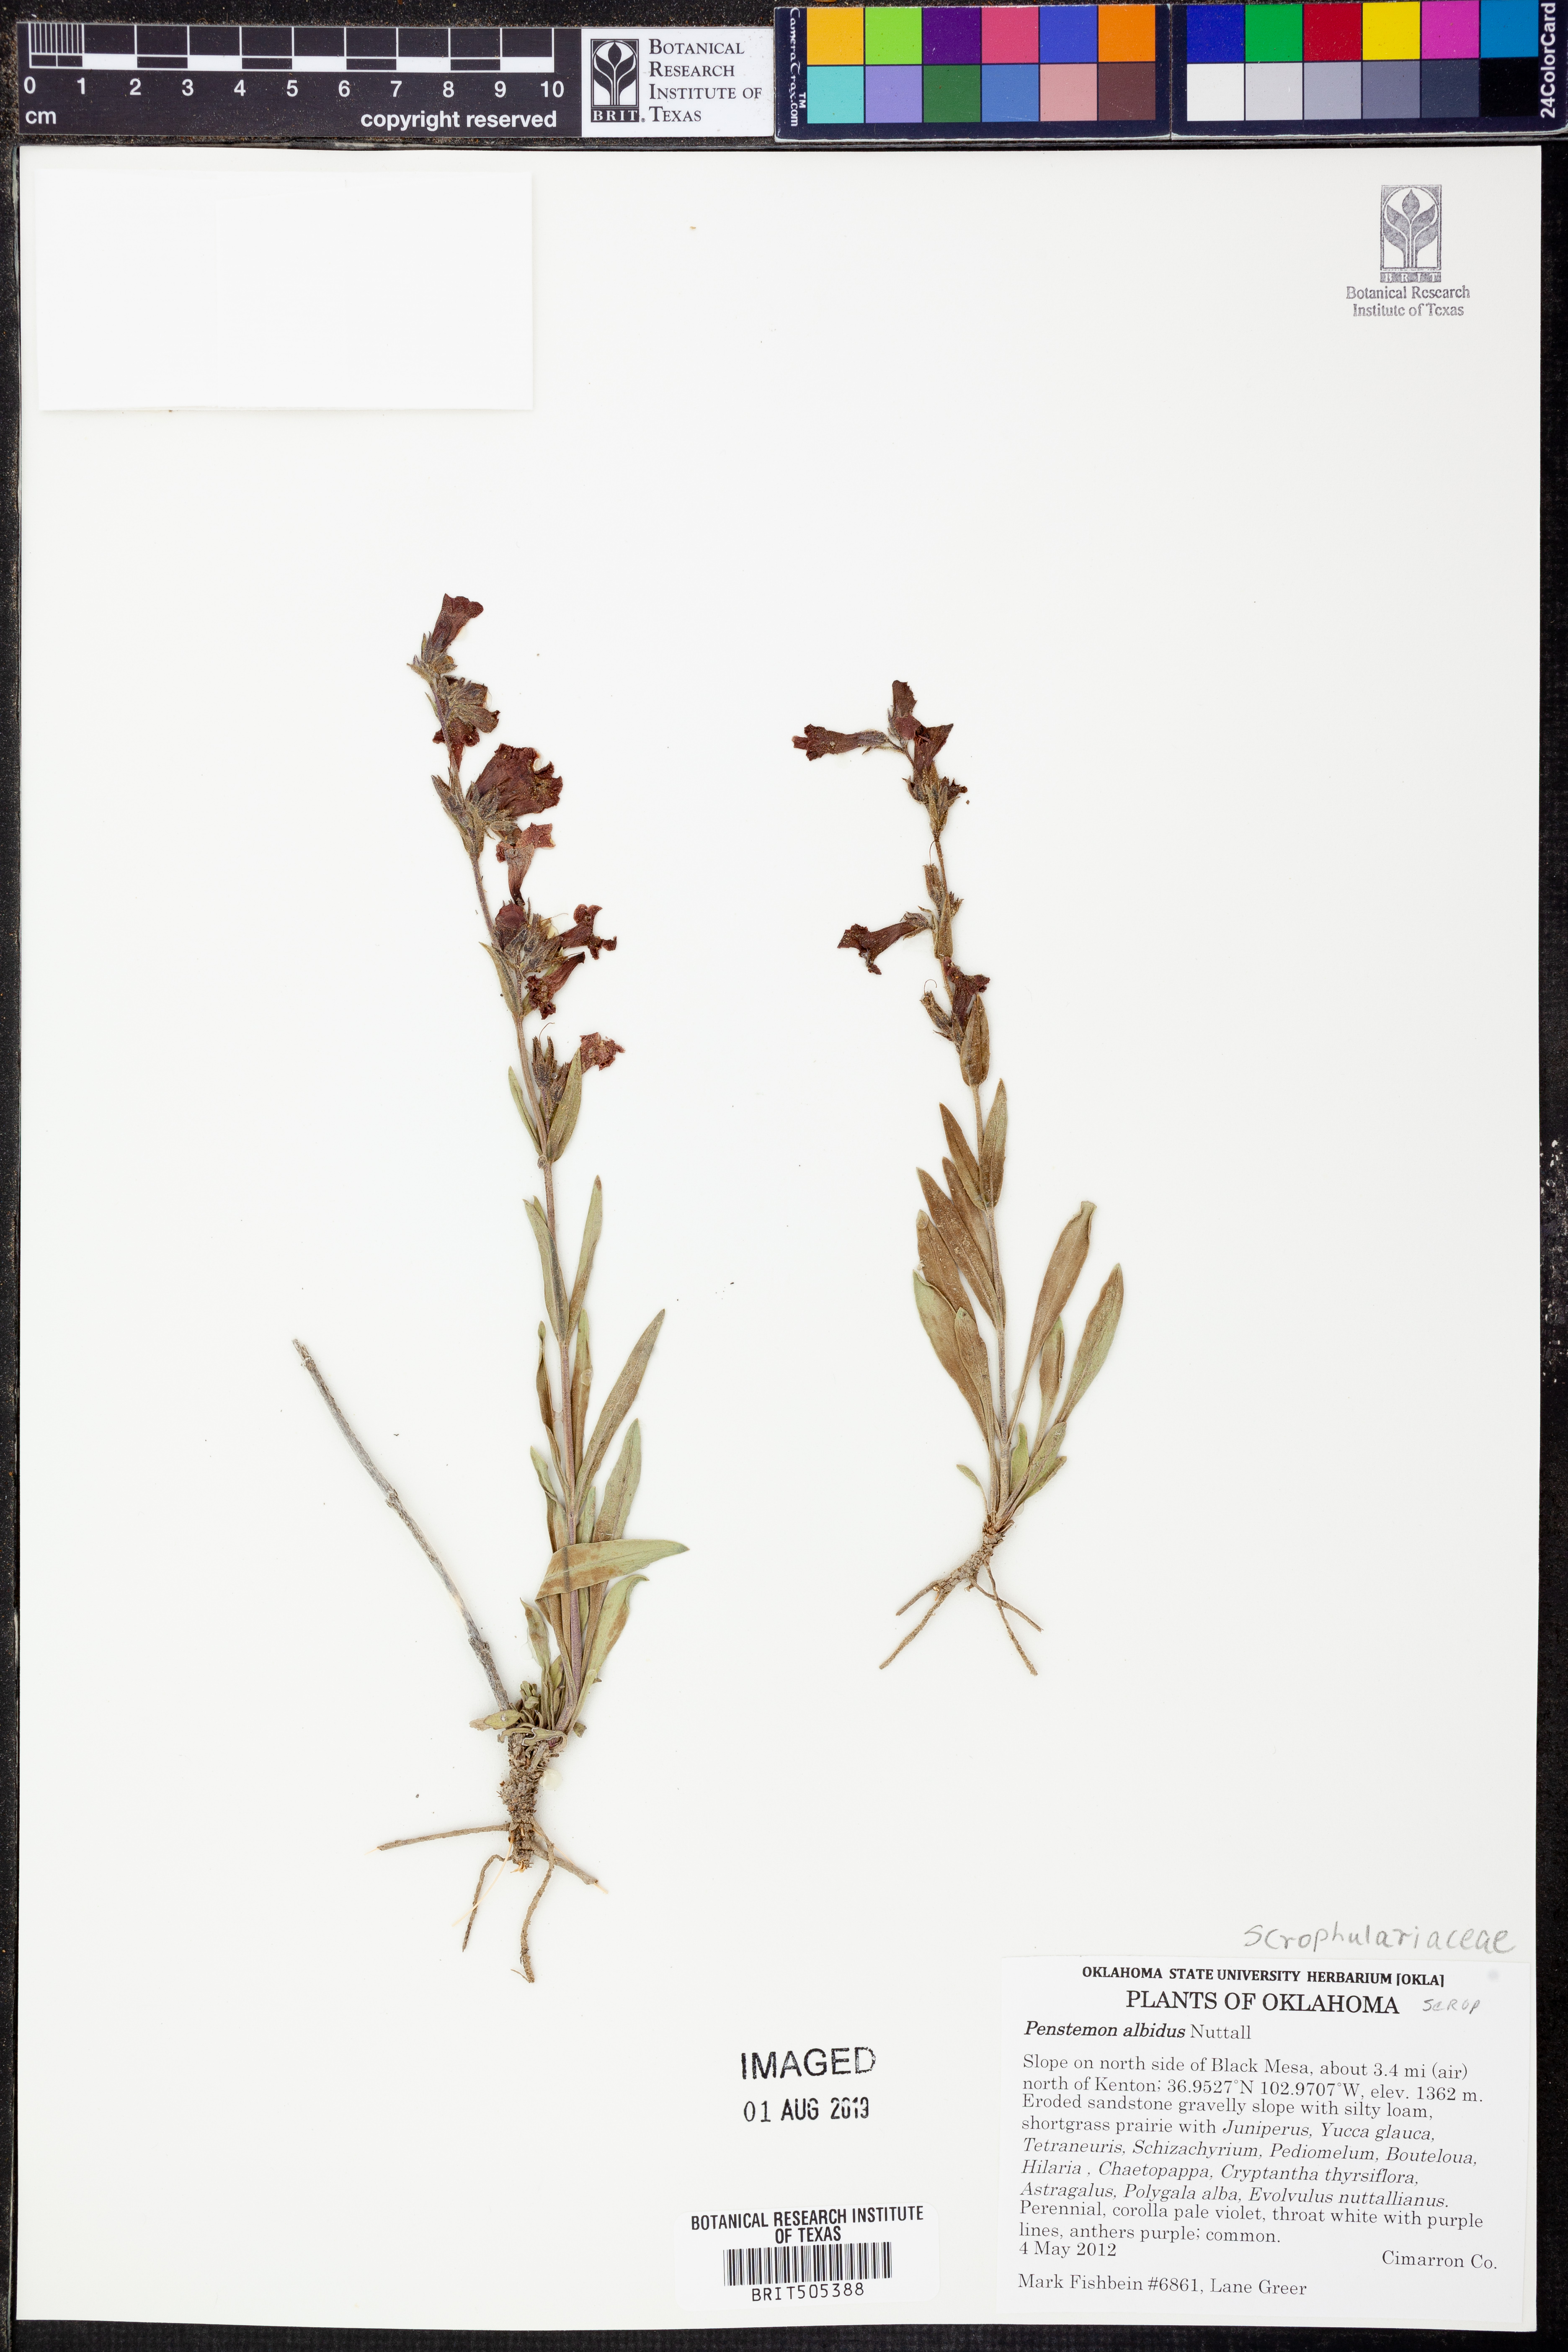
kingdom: Plantae
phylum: Tracheophyta
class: Magnoliopsida
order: Lamiales
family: Plantaginaceae
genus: Penstemon
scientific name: Penstemon albidus
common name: White beardtongue
